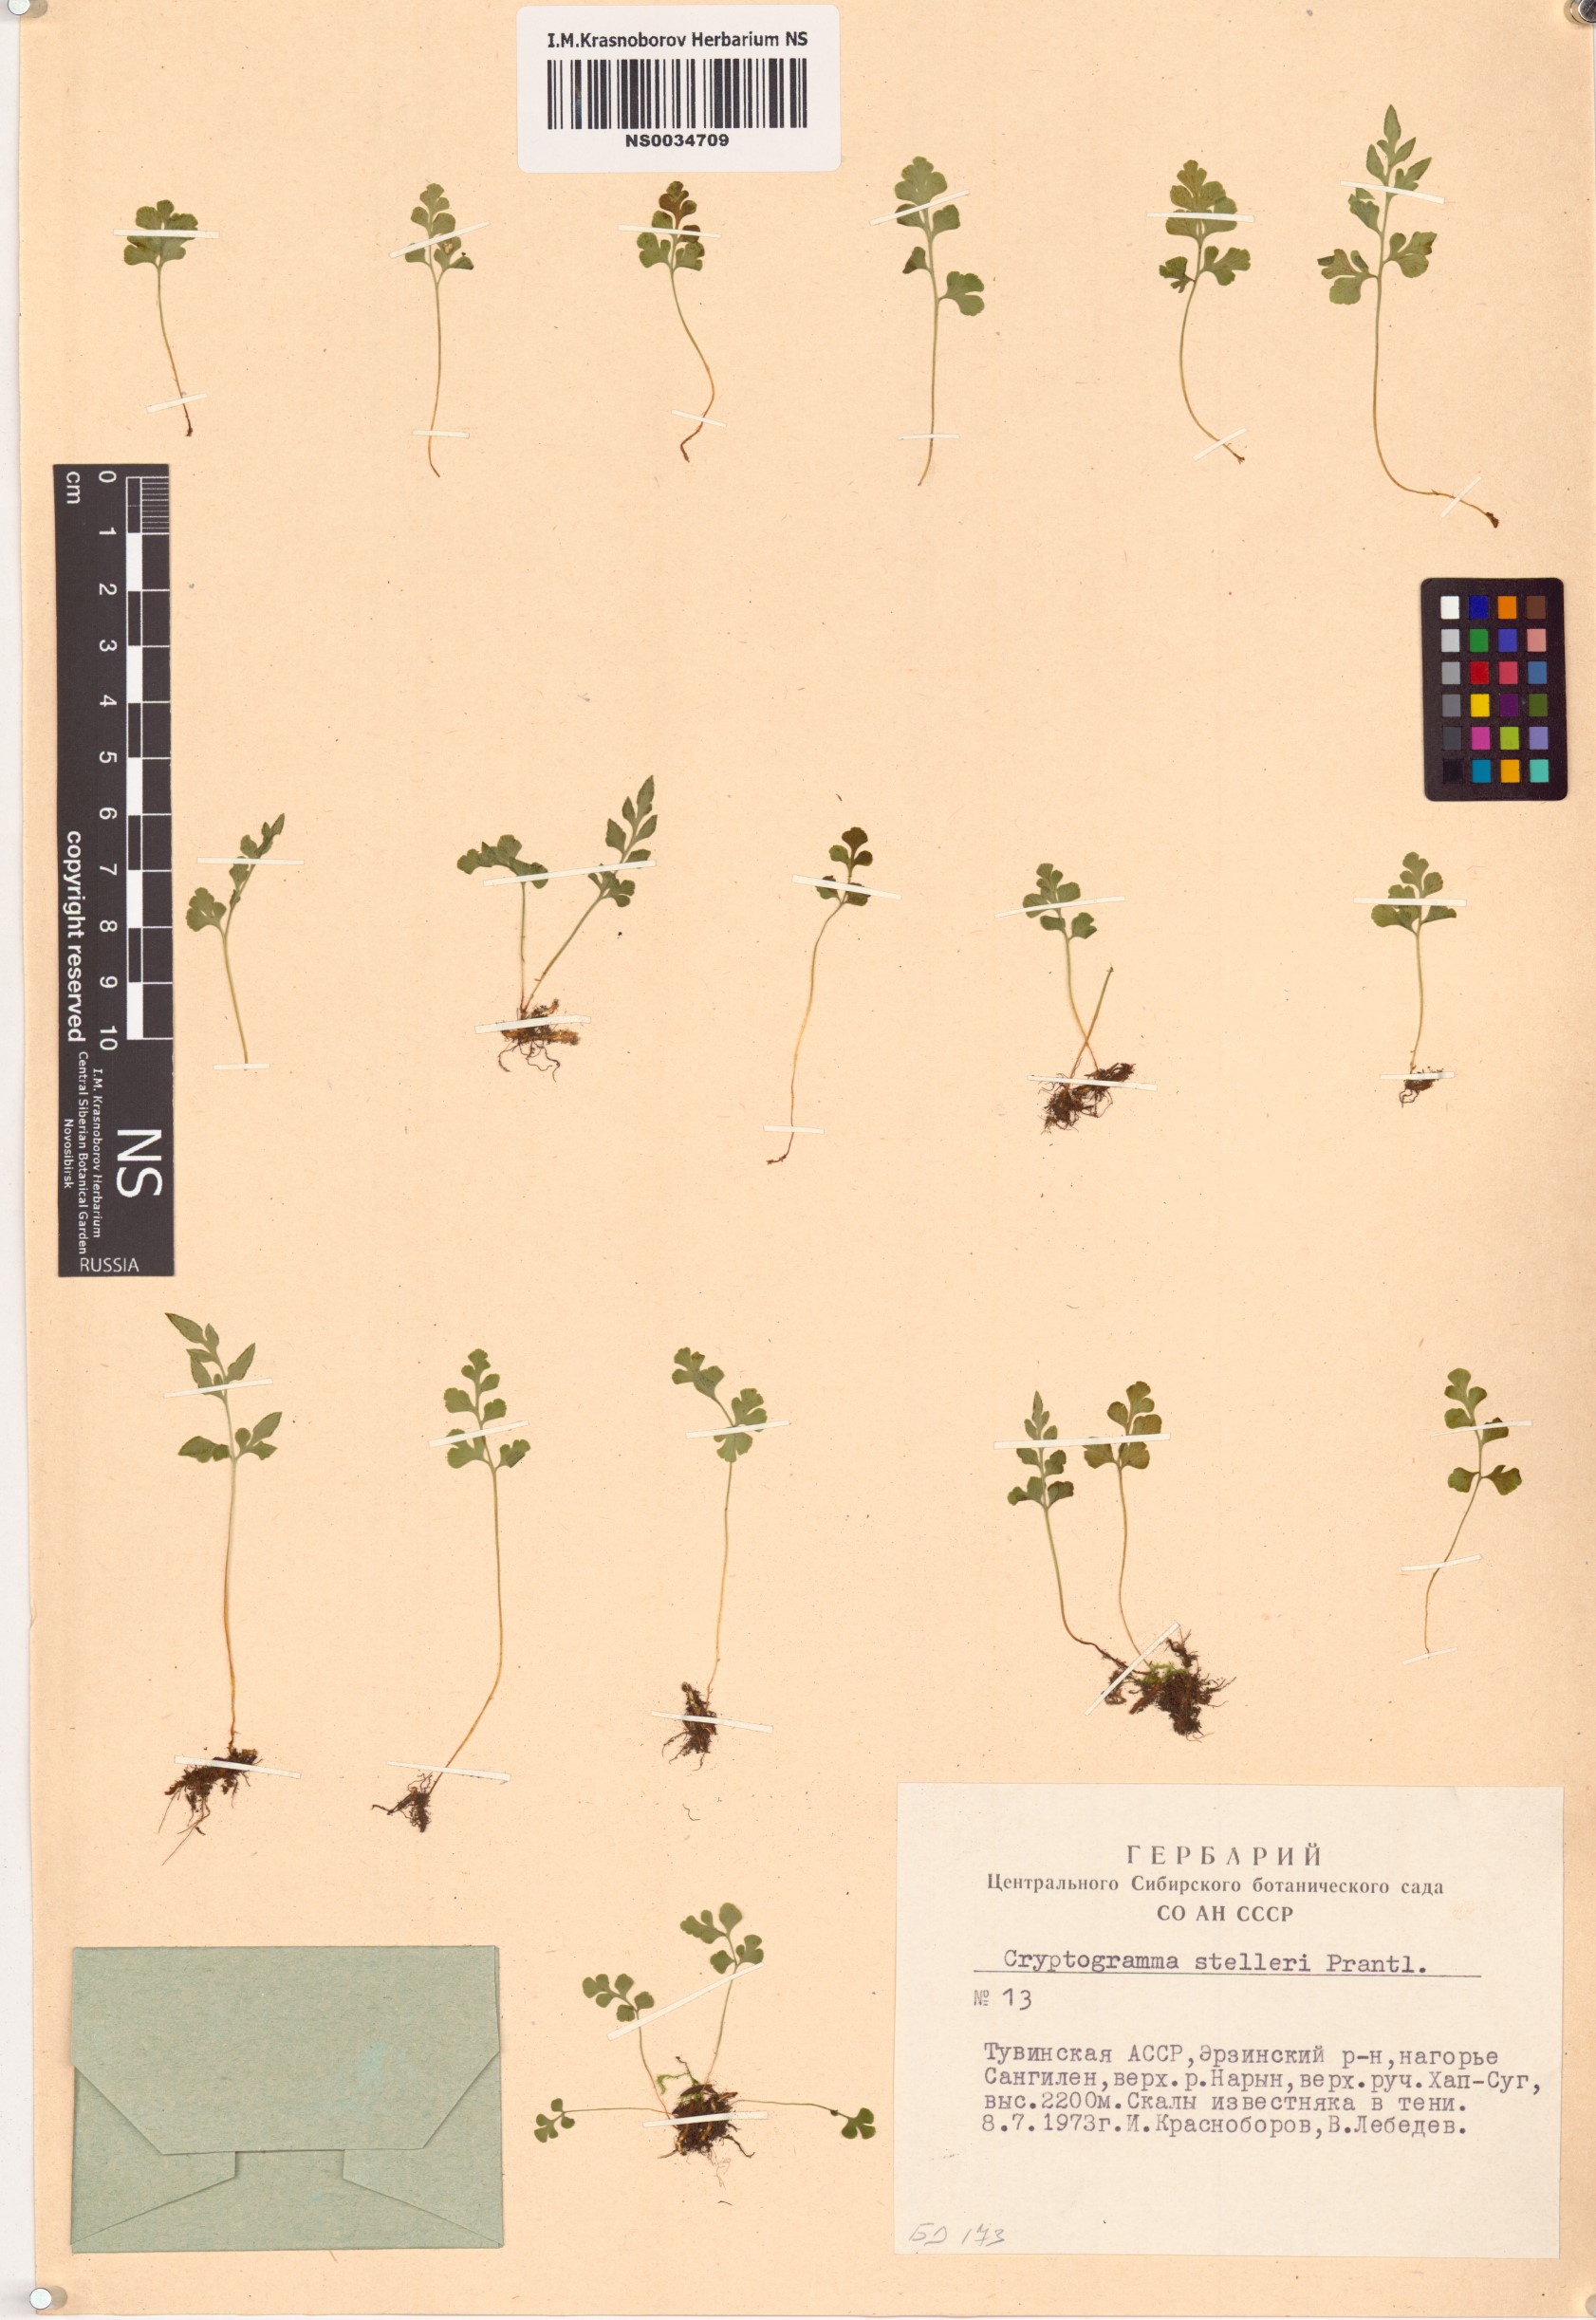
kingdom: Plantae
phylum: Tracheophyta
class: Polypodiopsida
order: Polypodiales
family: Pteridaceae
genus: Cryptogramma
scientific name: Cryptogramma stelleri
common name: Cliff-brake
